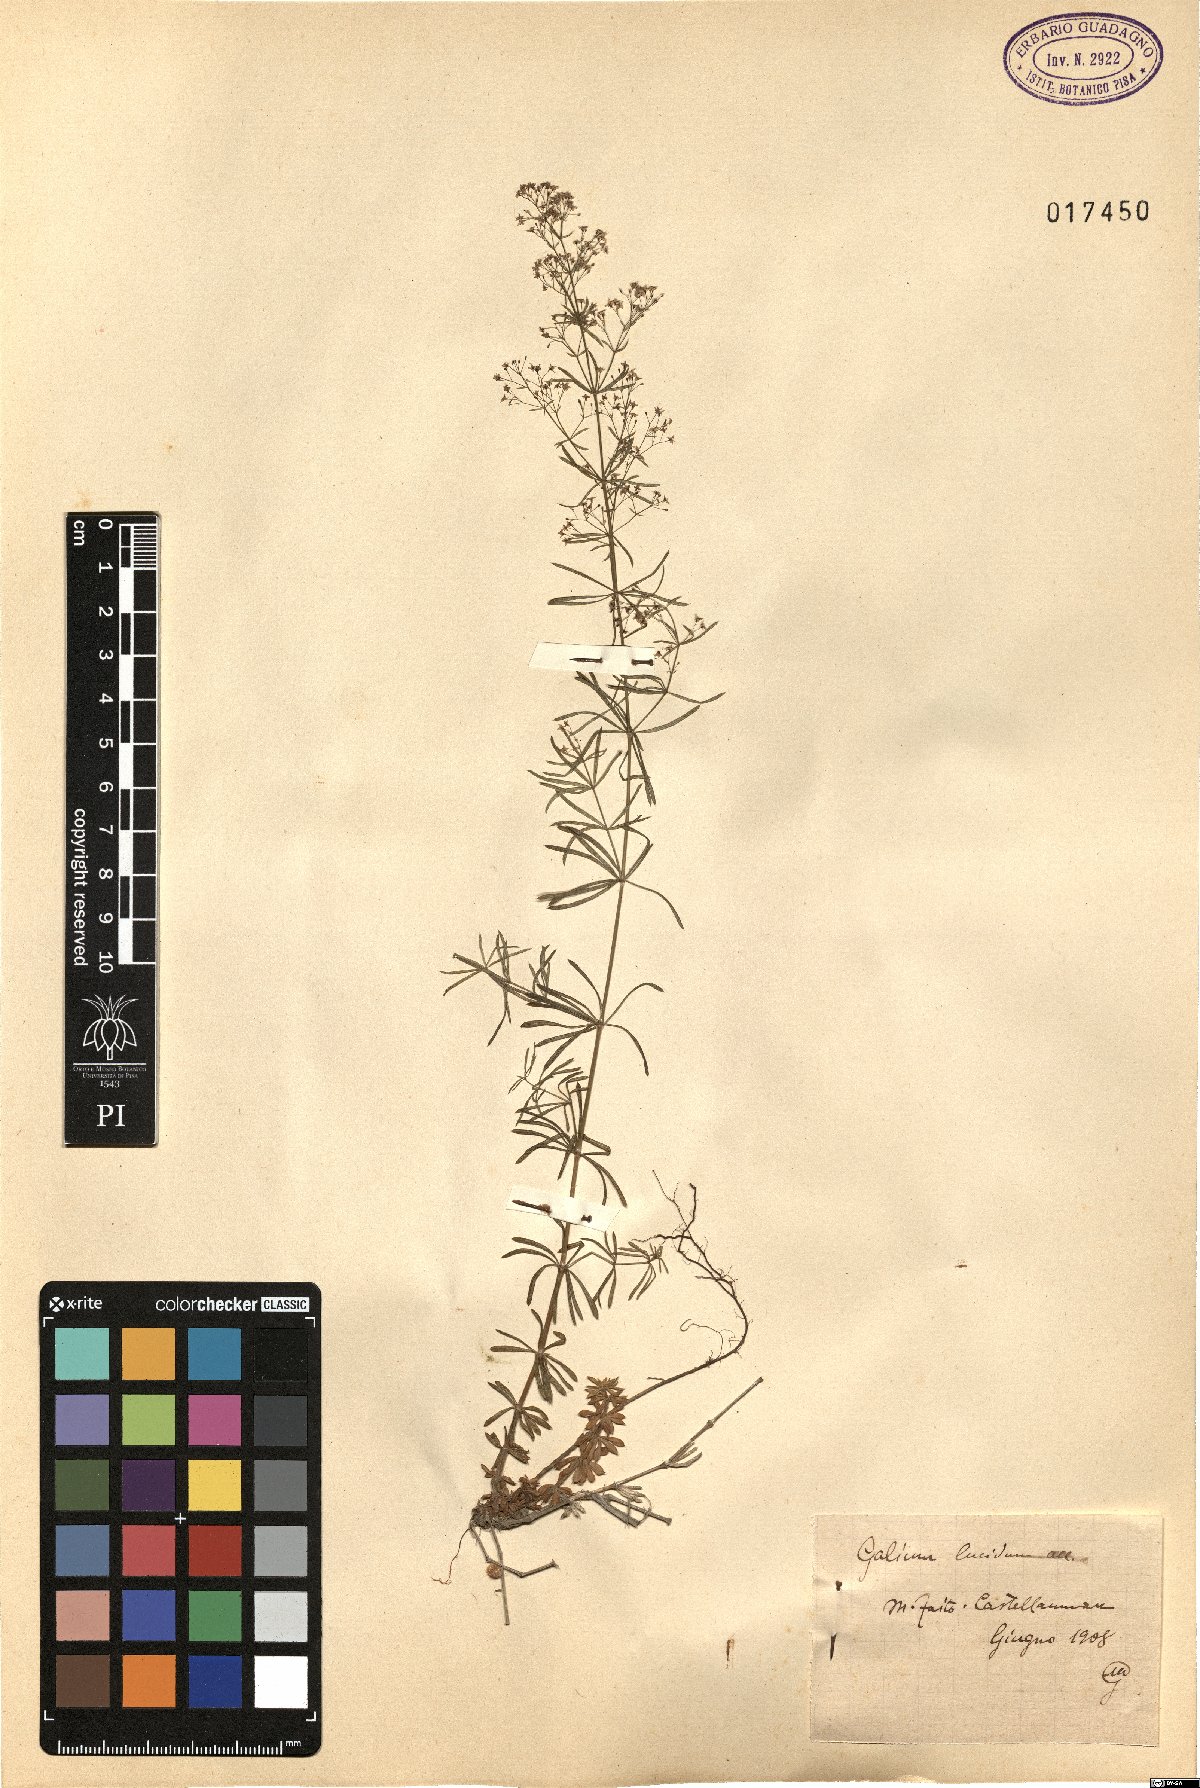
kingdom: Plantae
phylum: Tracheophyta
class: Magnoliopsida
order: Gentianales
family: Rubiaceae
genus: Galium
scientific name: Galium lucidum
